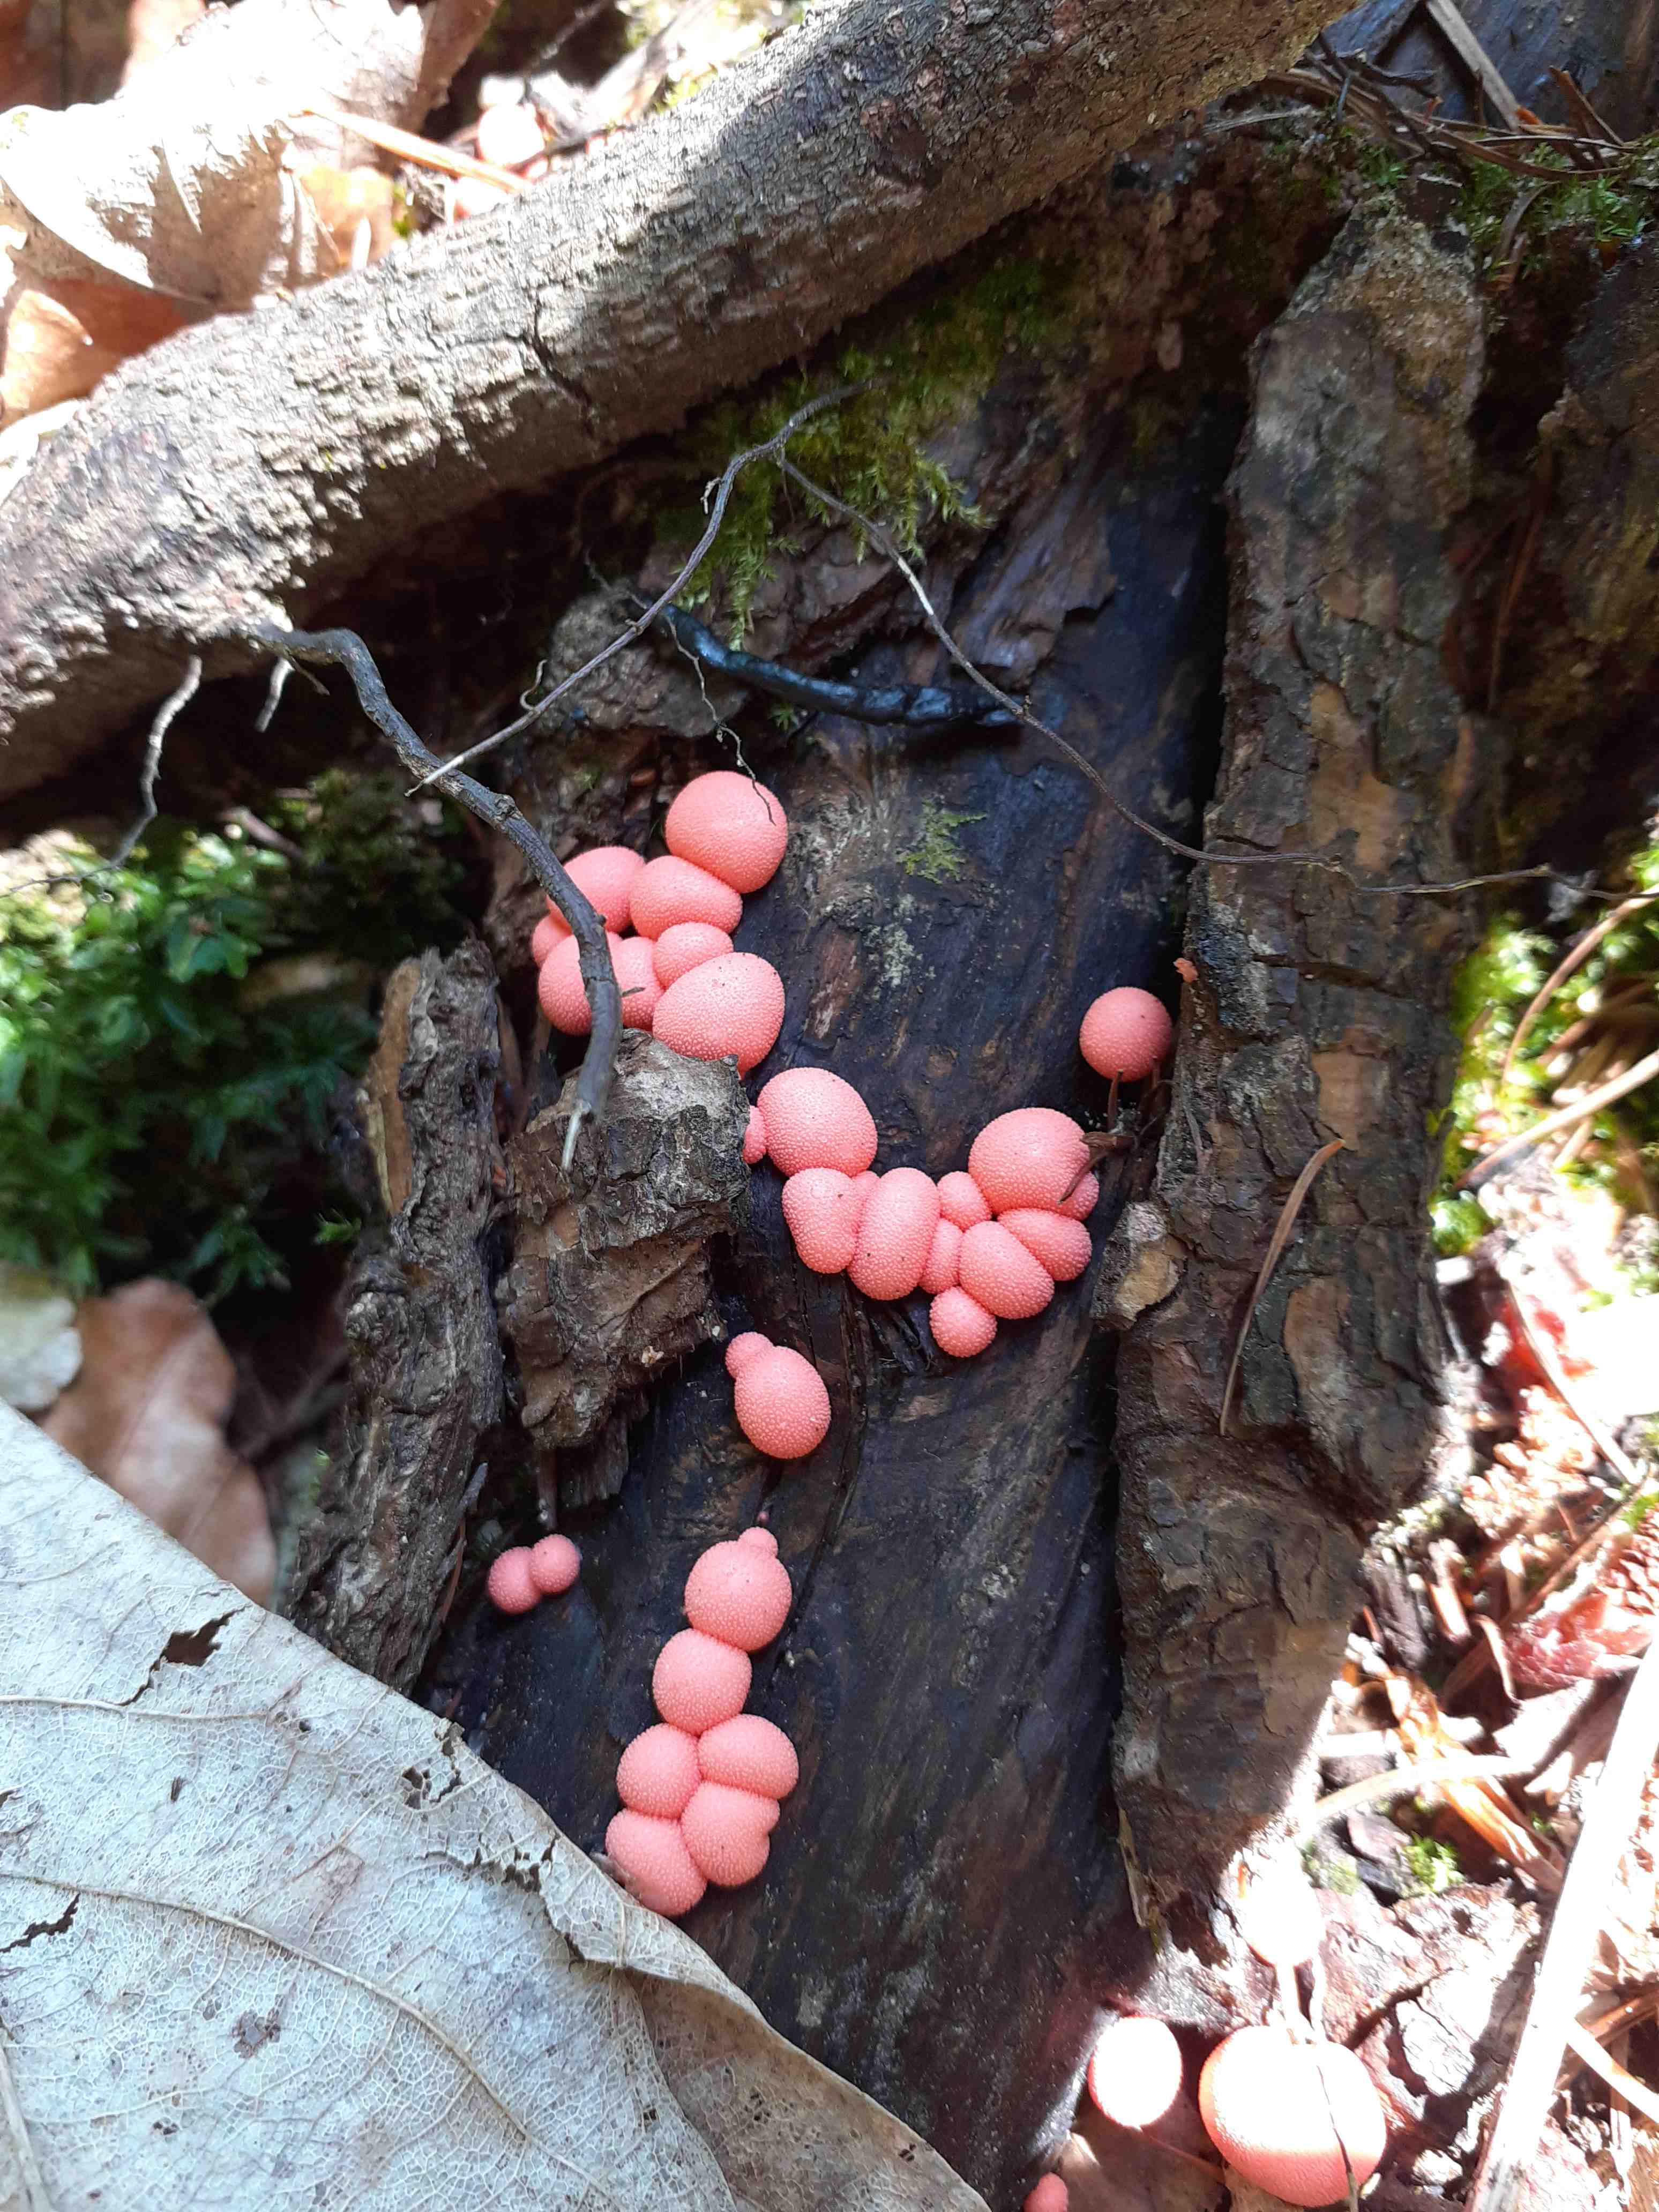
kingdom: Protozoa
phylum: Mycetozoa
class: Myxomycetes
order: Cribrariales
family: Tubiferaceae
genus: Lycogala
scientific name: Lycogala epidendrum
